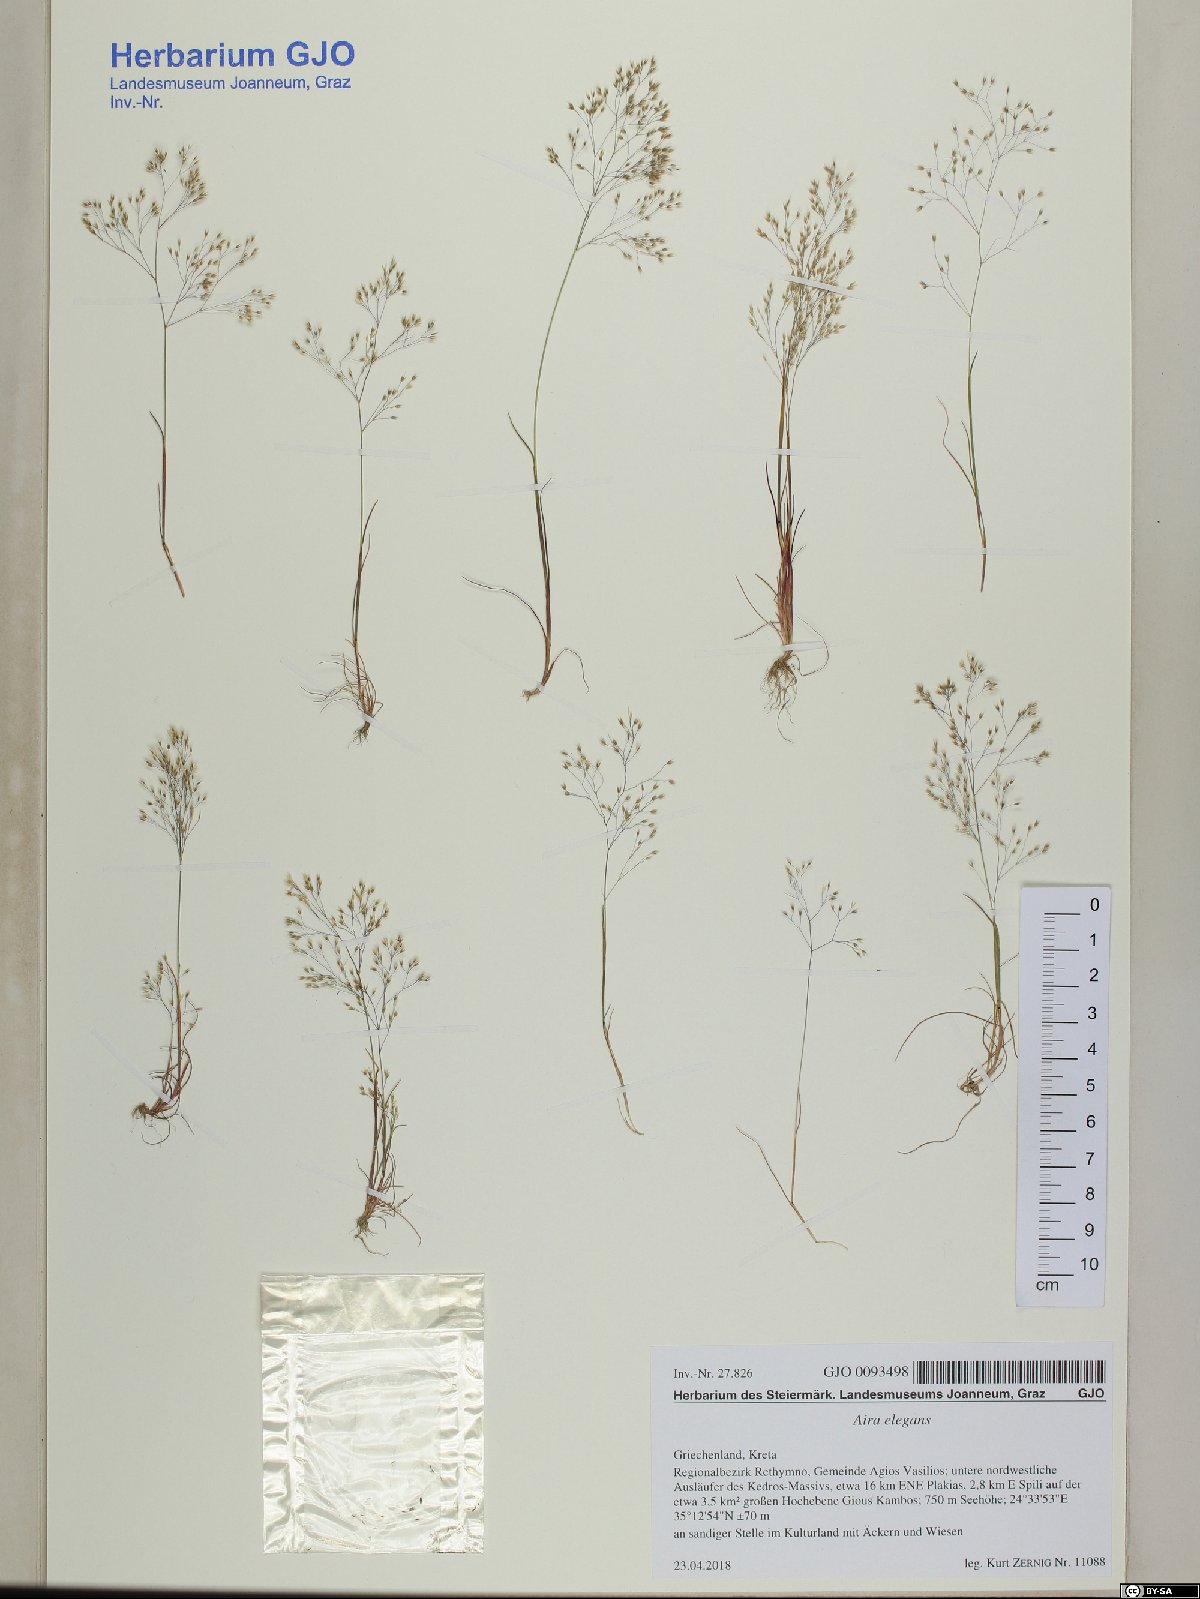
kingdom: Plantae
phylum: Tracheophyta
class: Liliopsida
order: Poales
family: Poaceae
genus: Aira
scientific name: Aira elegans
